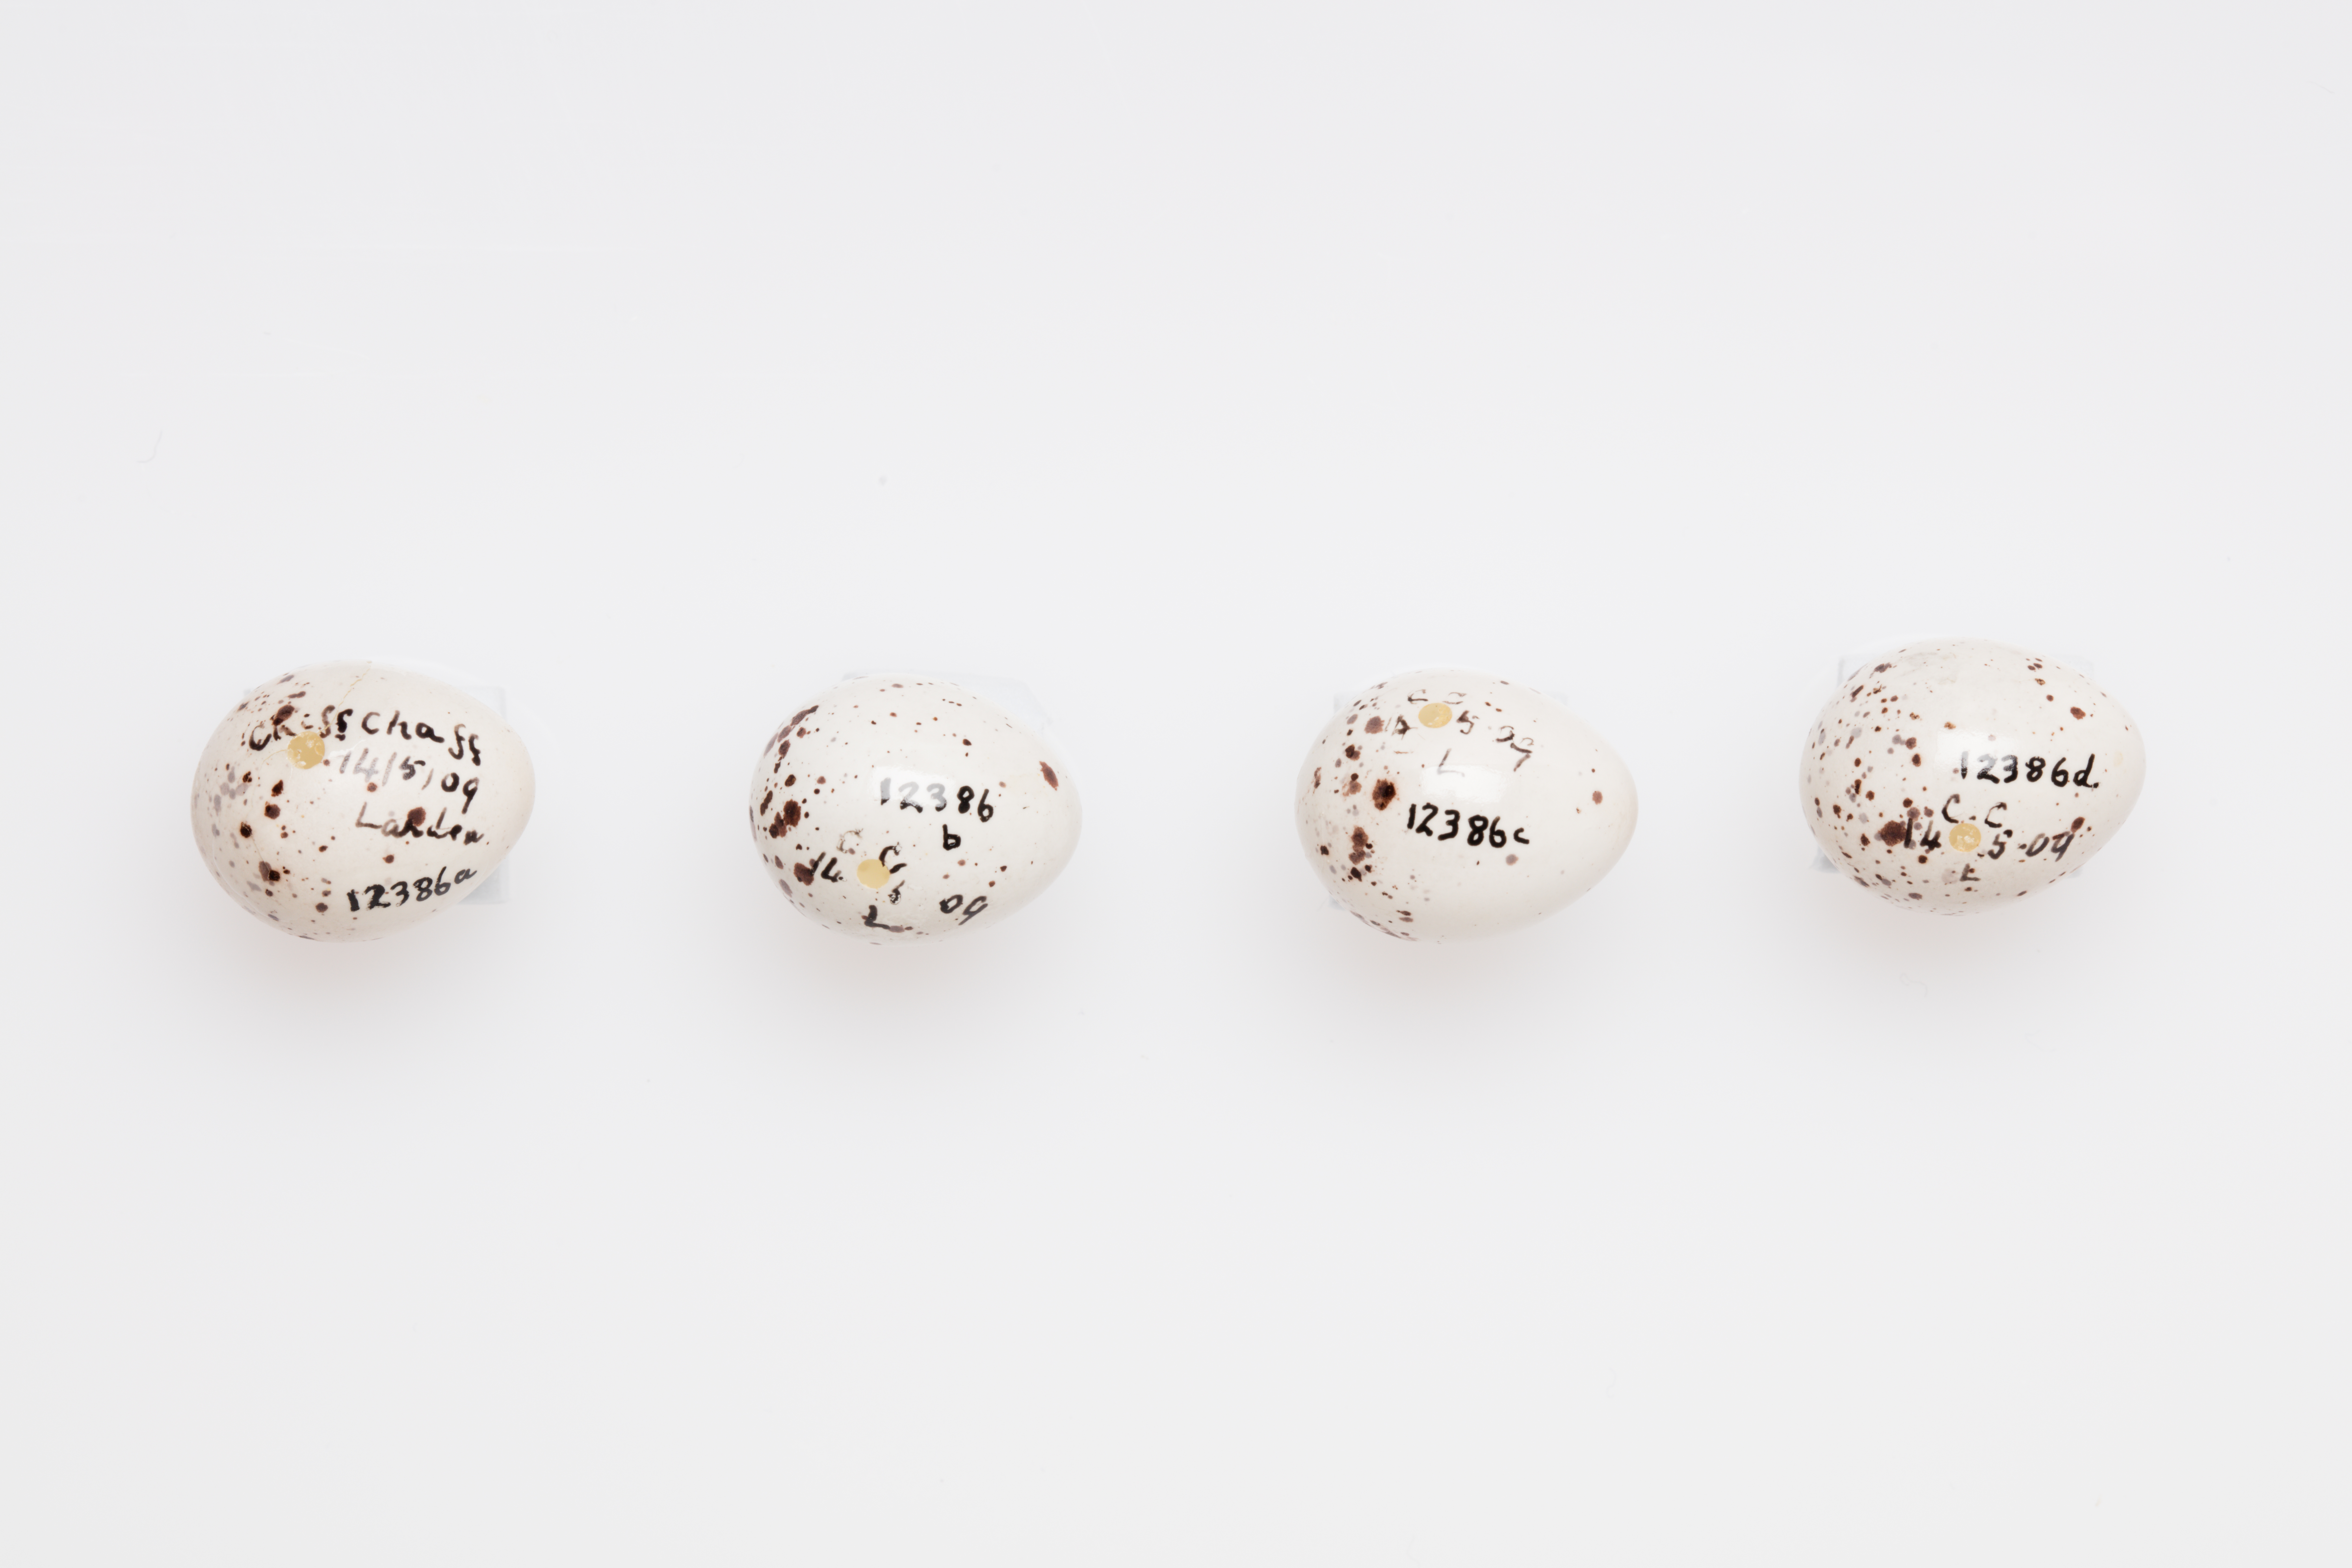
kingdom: Animalia
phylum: Chordata
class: Aves
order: Passeriformes
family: Phylloscopidae
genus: Phylloscopus
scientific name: Phylloscopus collybita
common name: Common chiffchaff
